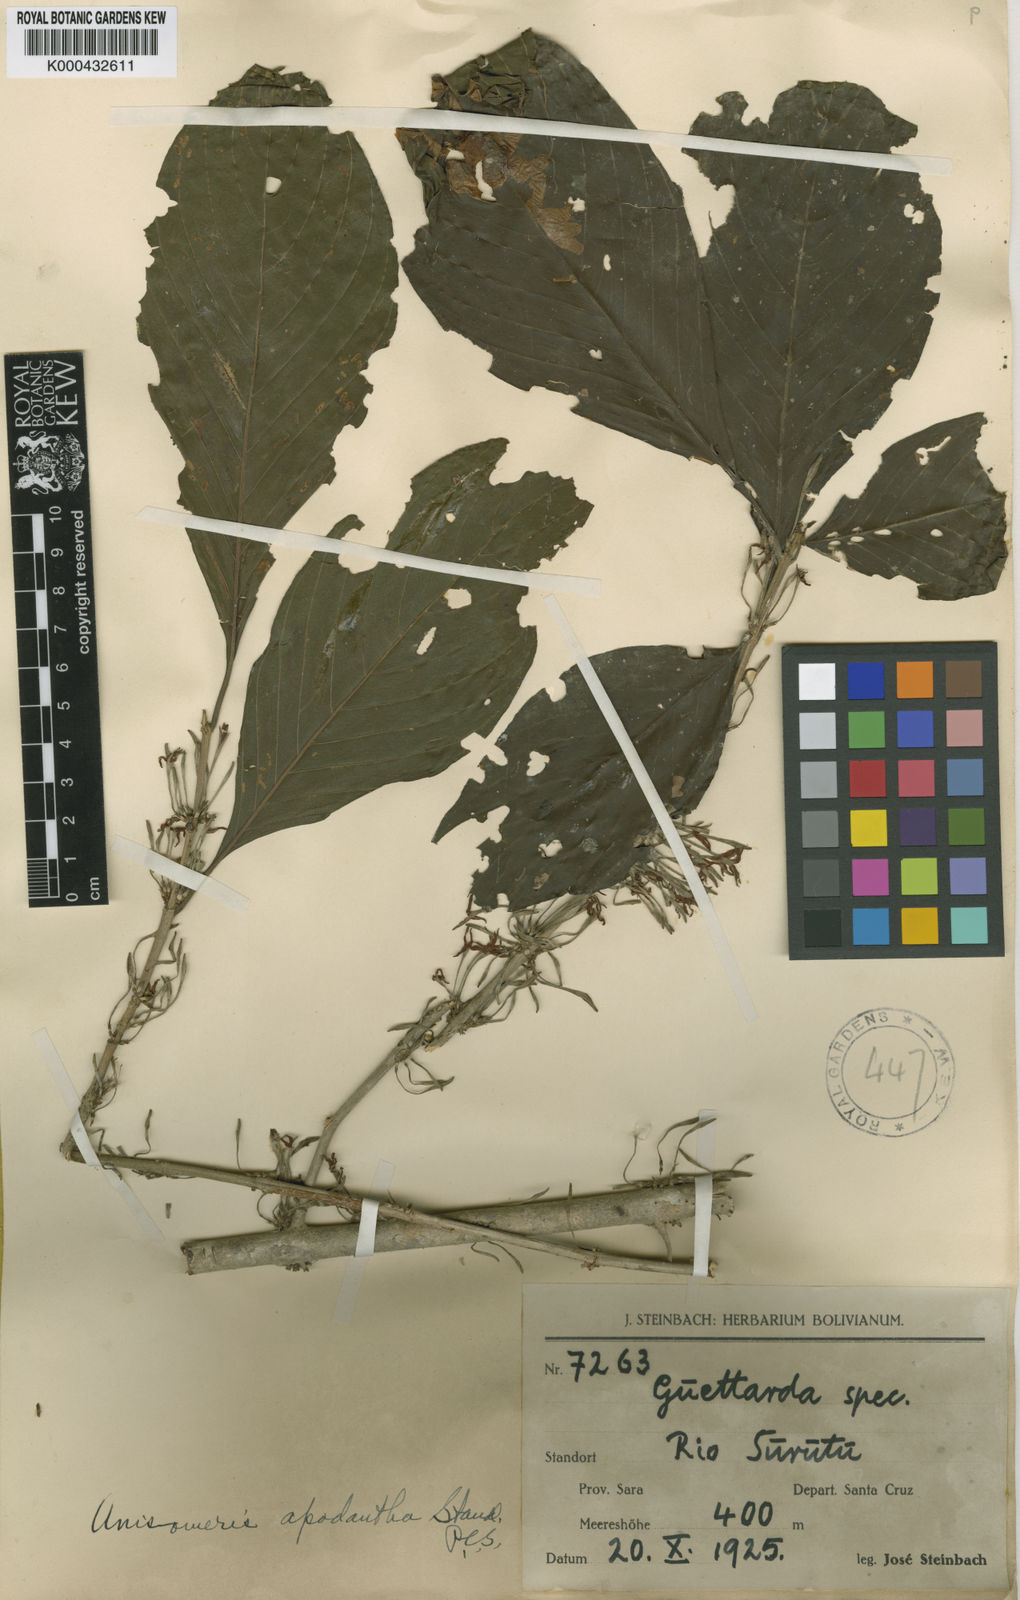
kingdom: Plantae
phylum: Tracheophyta
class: Magnoliopsida
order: Gentianales
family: Rubiaceae
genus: Chomelia
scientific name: Chomelia apodantha
